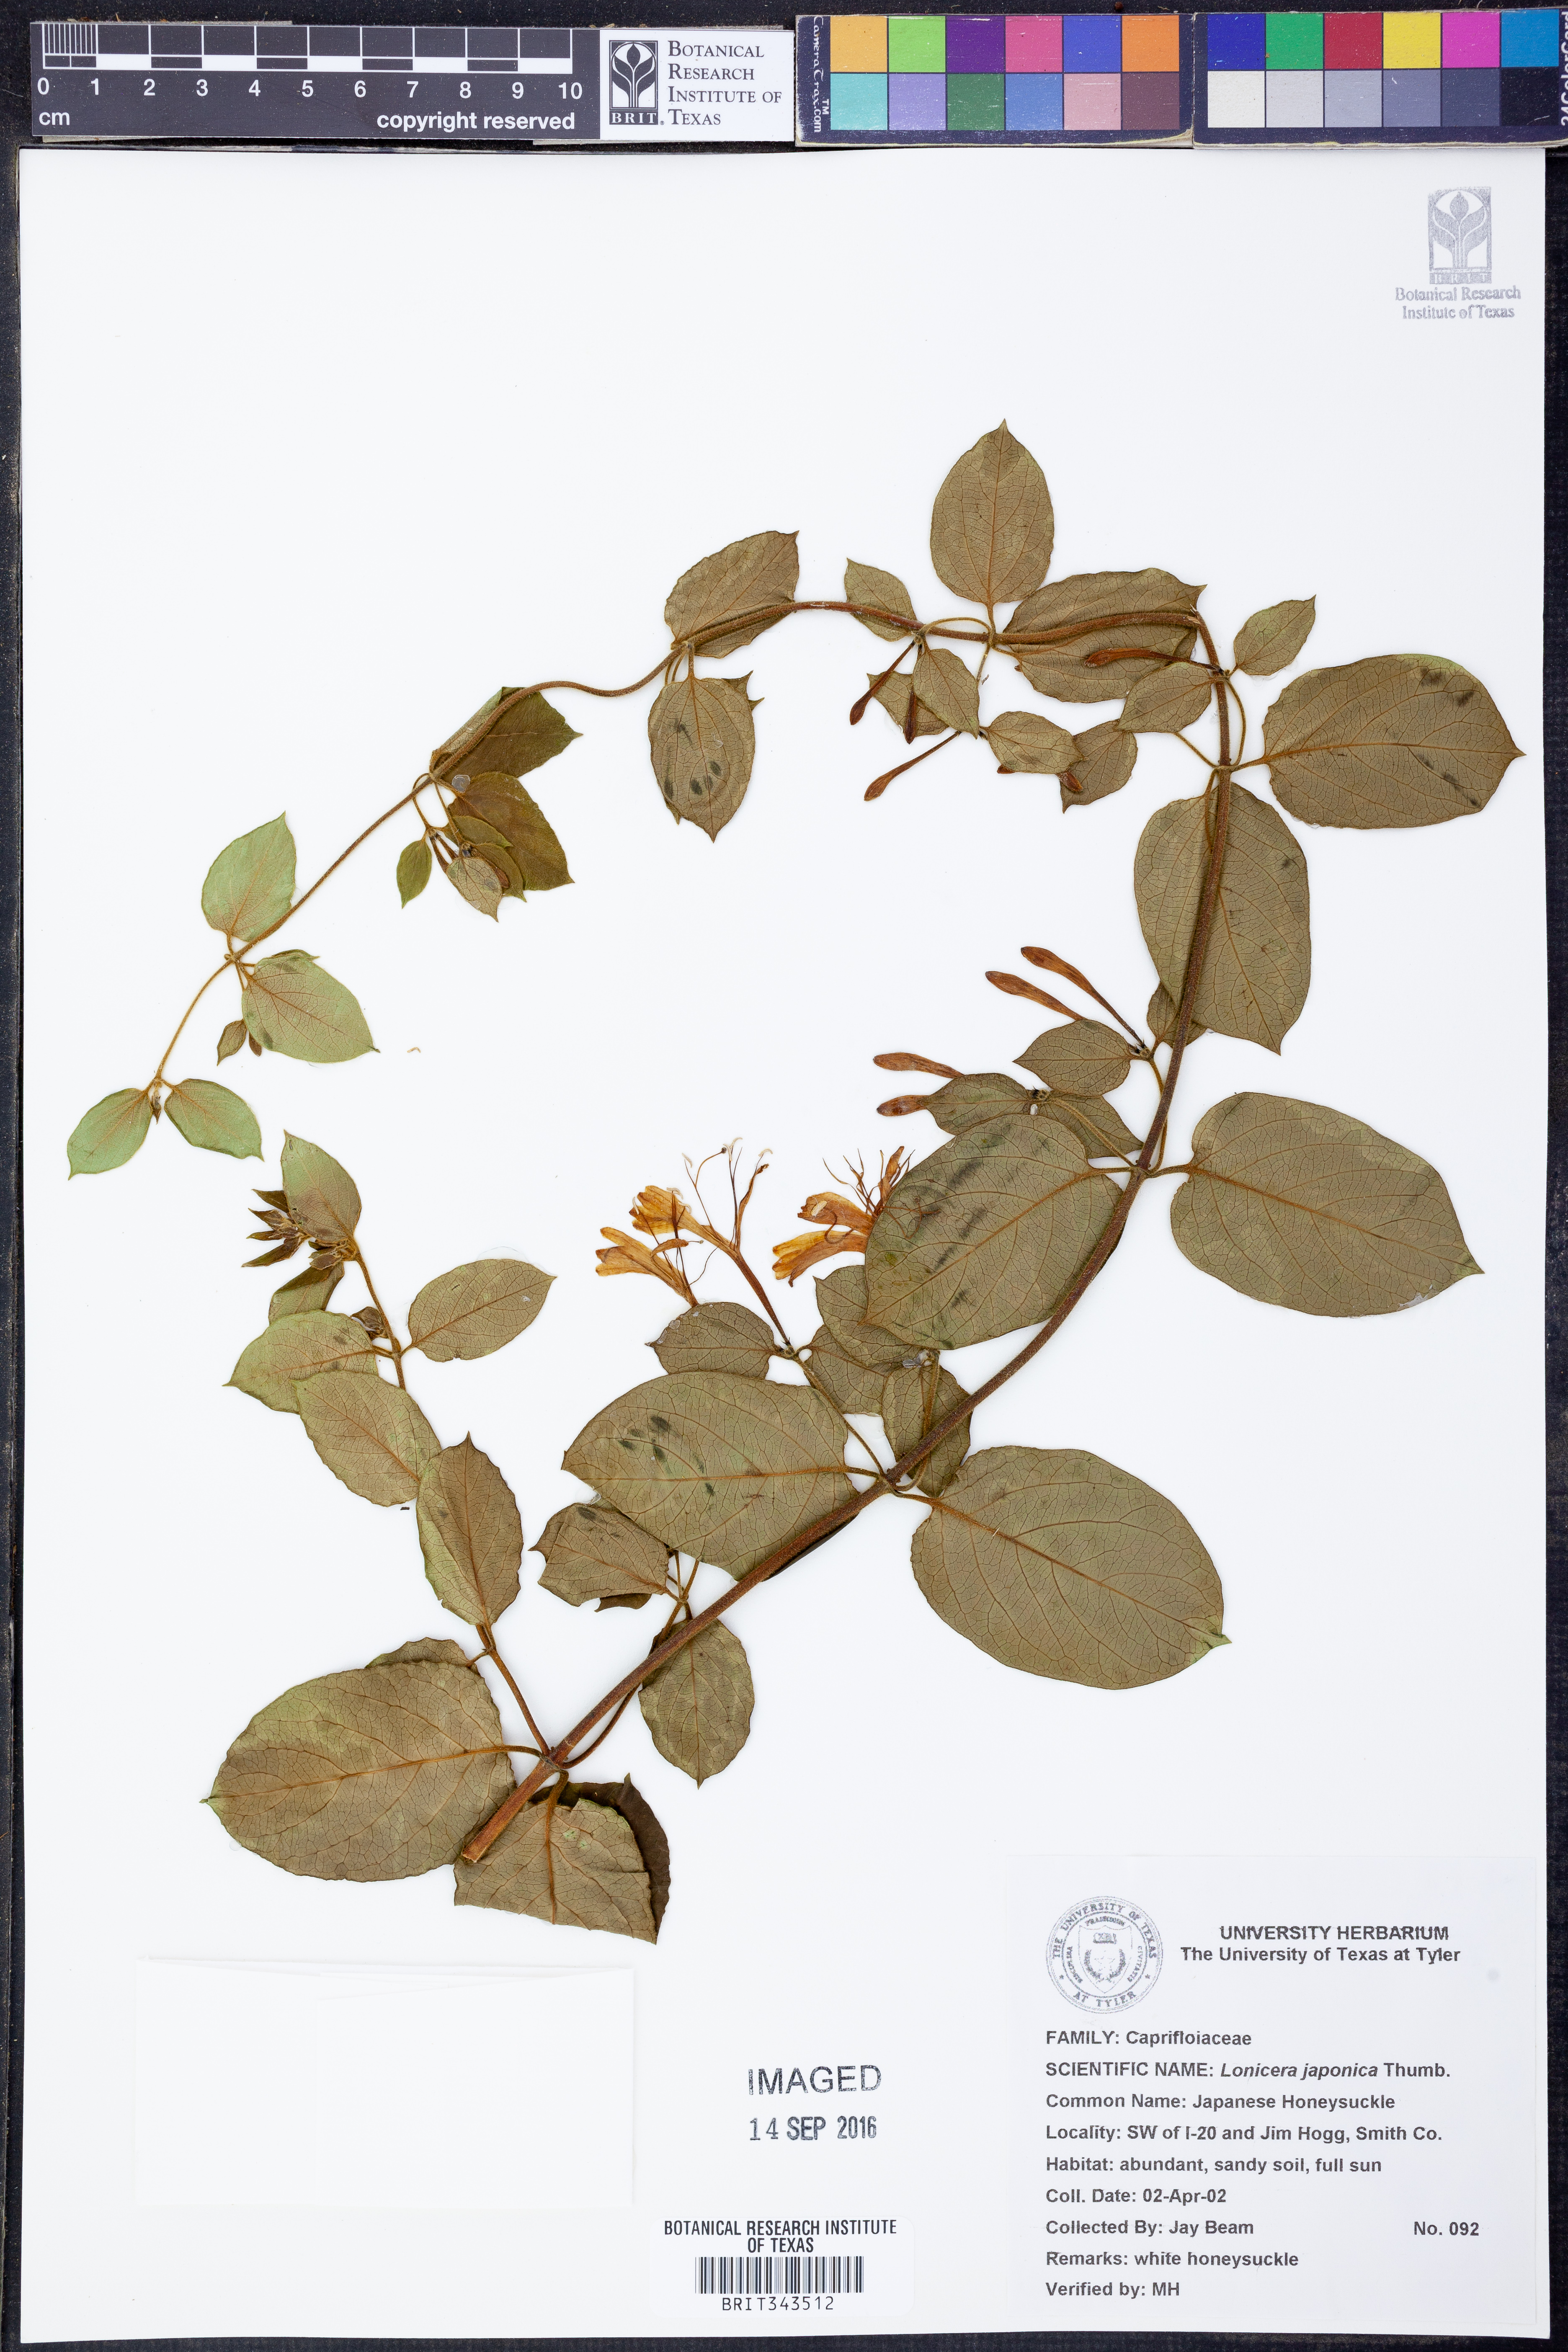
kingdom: Plantae
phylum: Tracheophyta
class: Magnoliopsida
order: Dipsacales
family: Caprifoliaceae
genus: Lonicera
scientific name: Lonicera japonica
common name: Japanese honeysuckle
